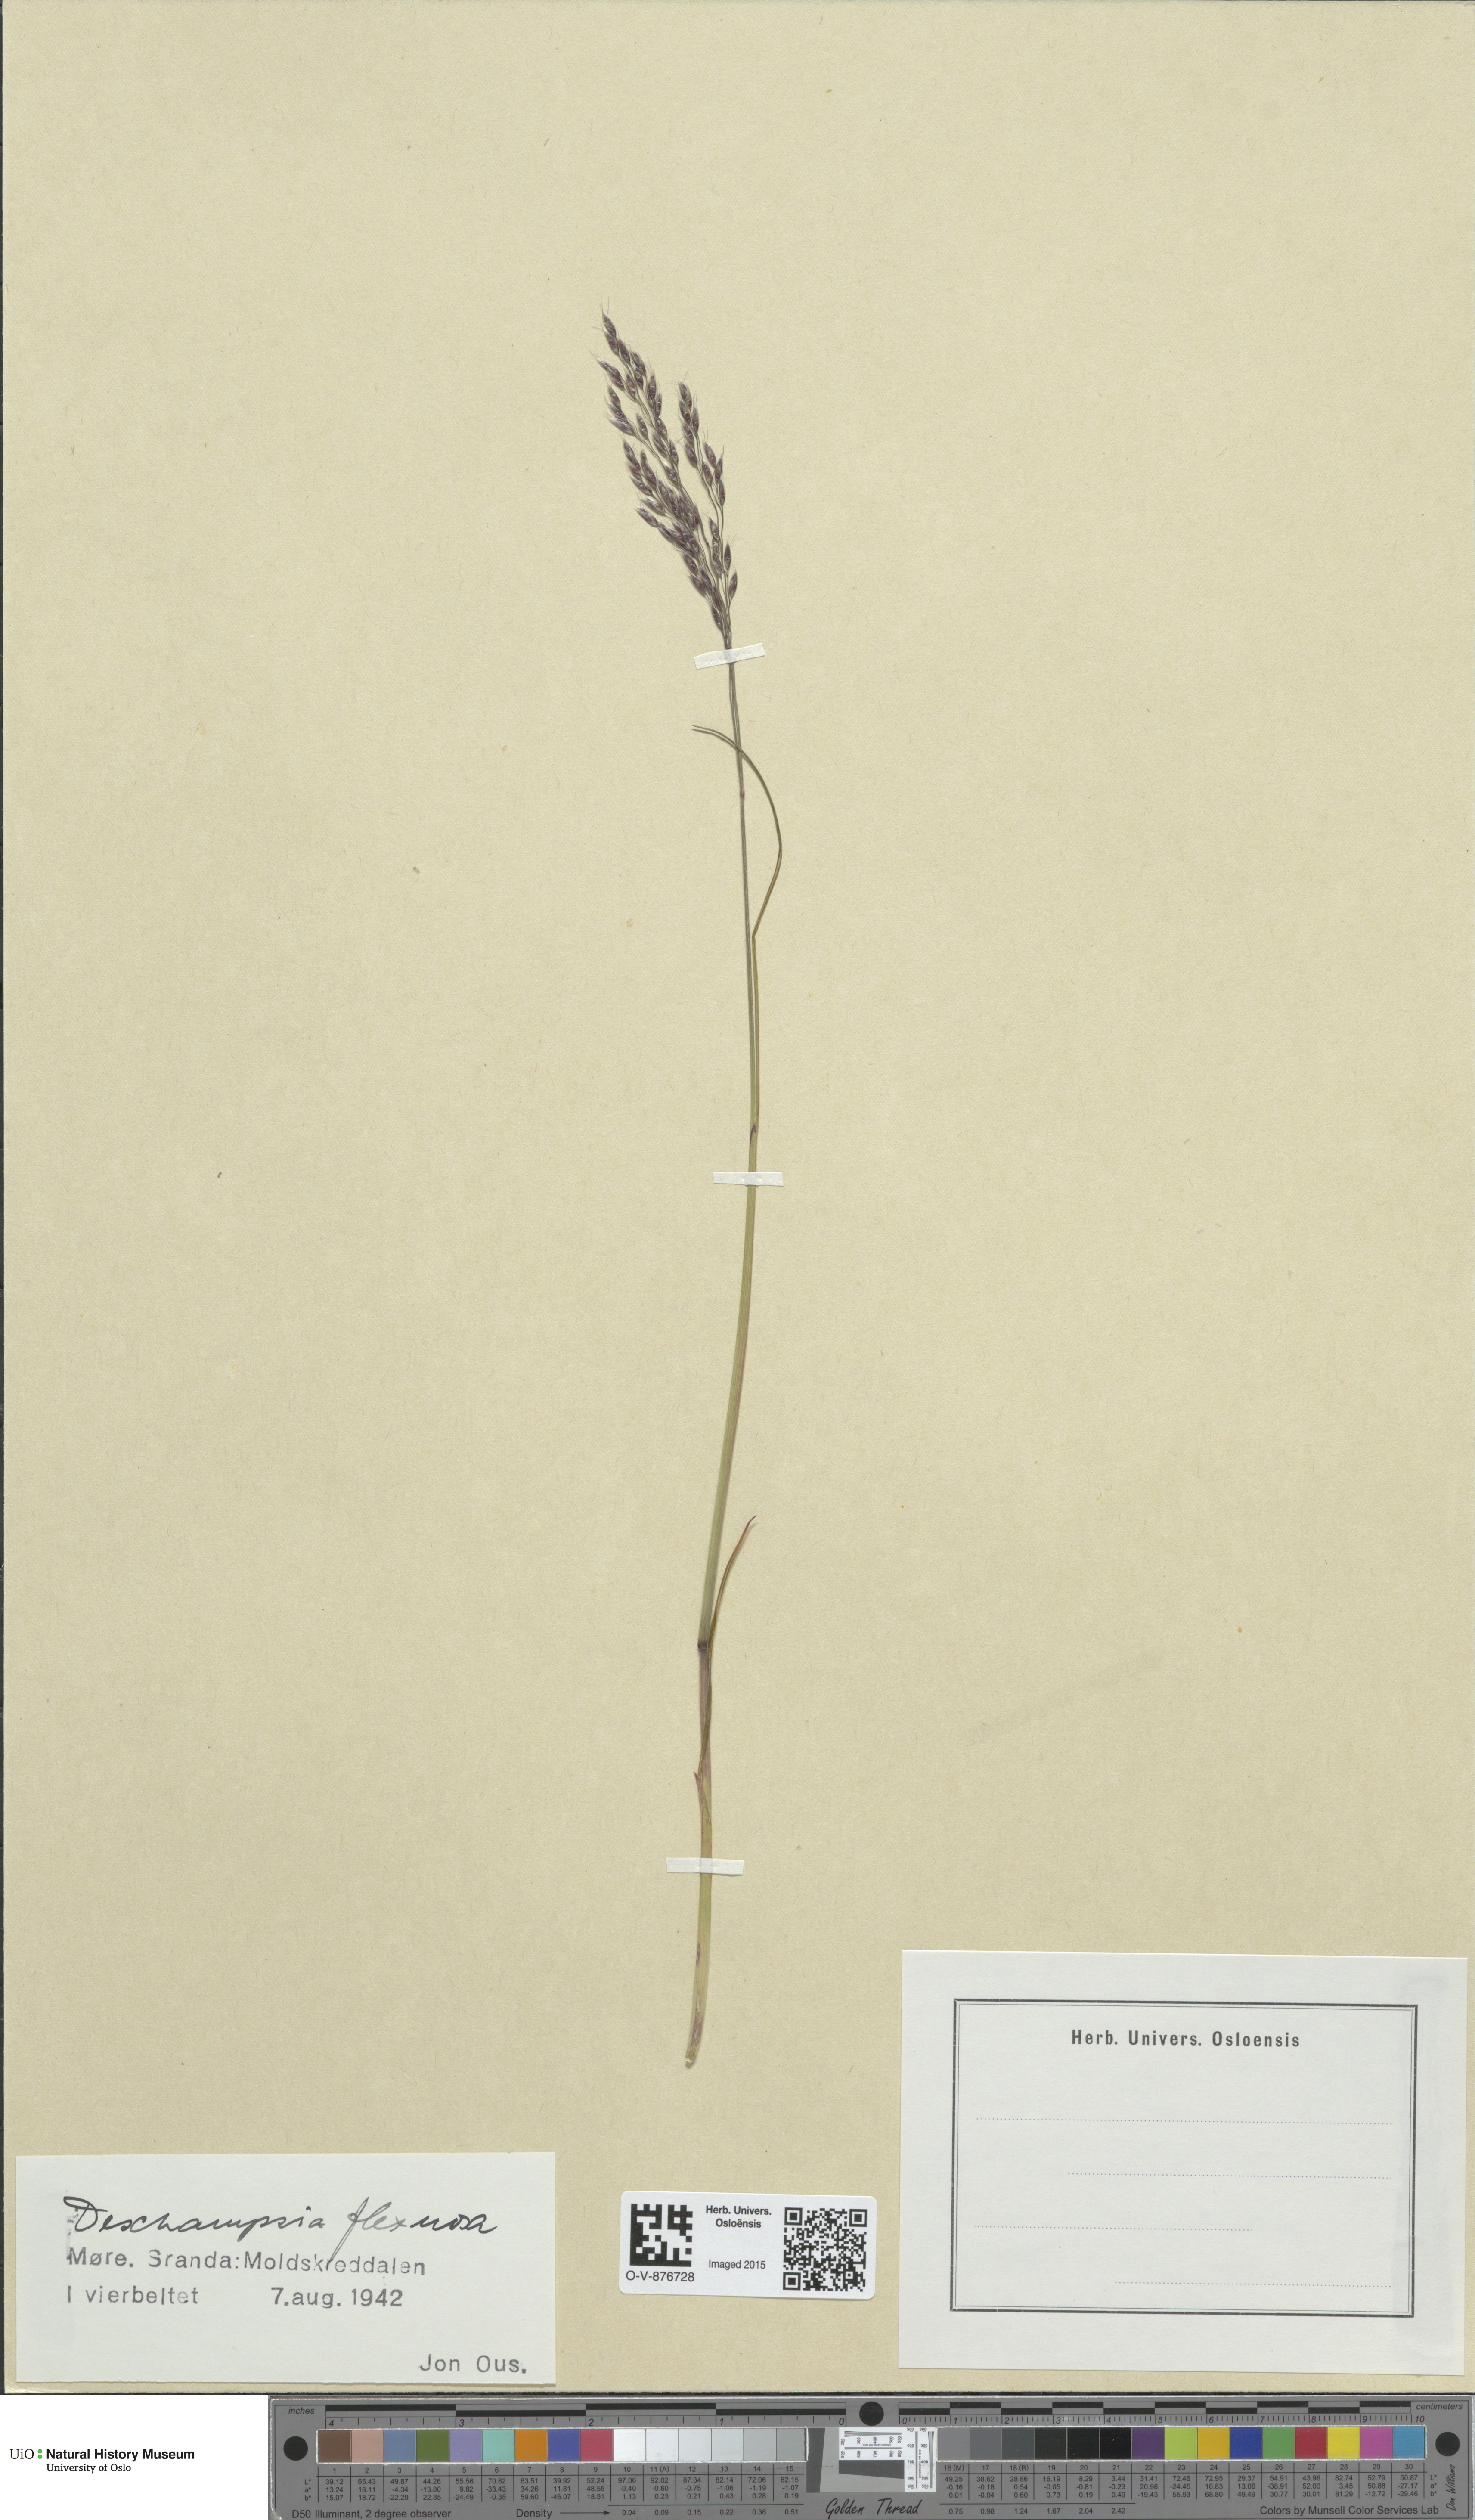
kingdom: Plantae
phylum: Tracheophyta
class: Liliopsida
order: Poales
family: Poaceae
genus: Avenella
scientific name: Avenella flexuosa
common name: Wavy hairgrass
